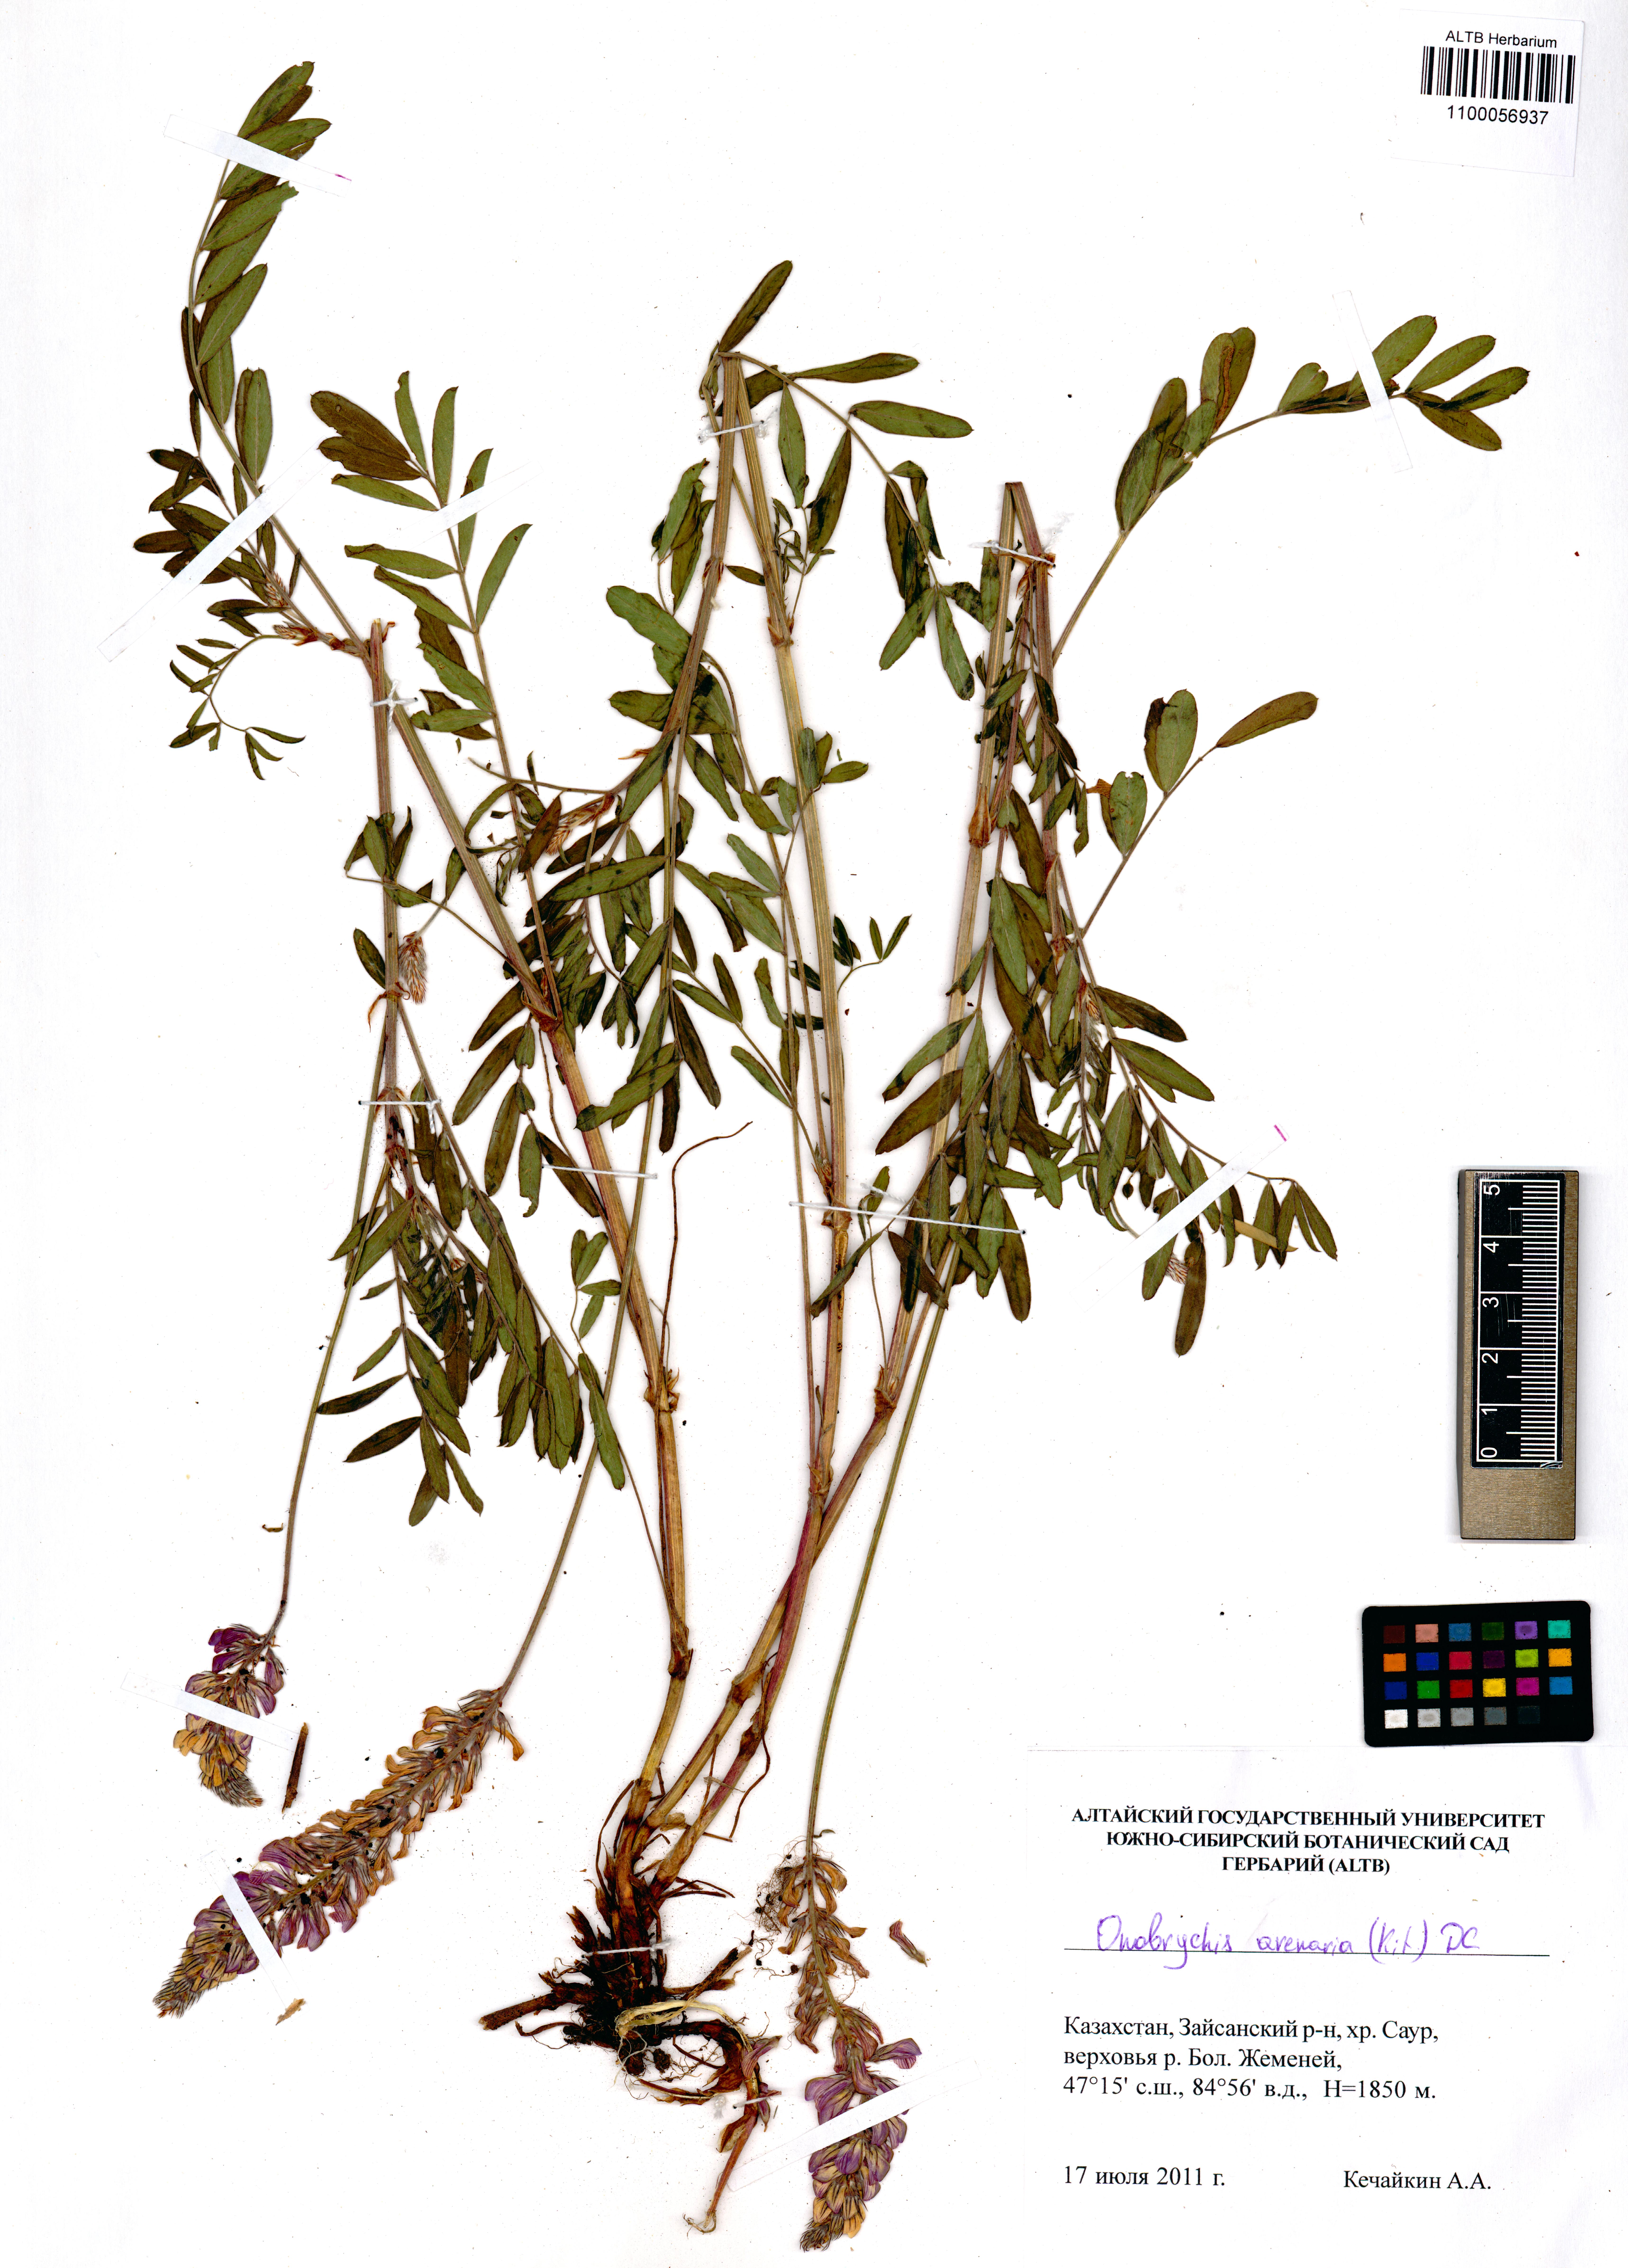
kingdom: Plantae
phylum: Tracheophyta
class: Magnoliopsida
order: Fabales
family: Fabaceae
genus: Onobrychis
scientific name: Onobrychis arenaria
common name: Sand esparcet
